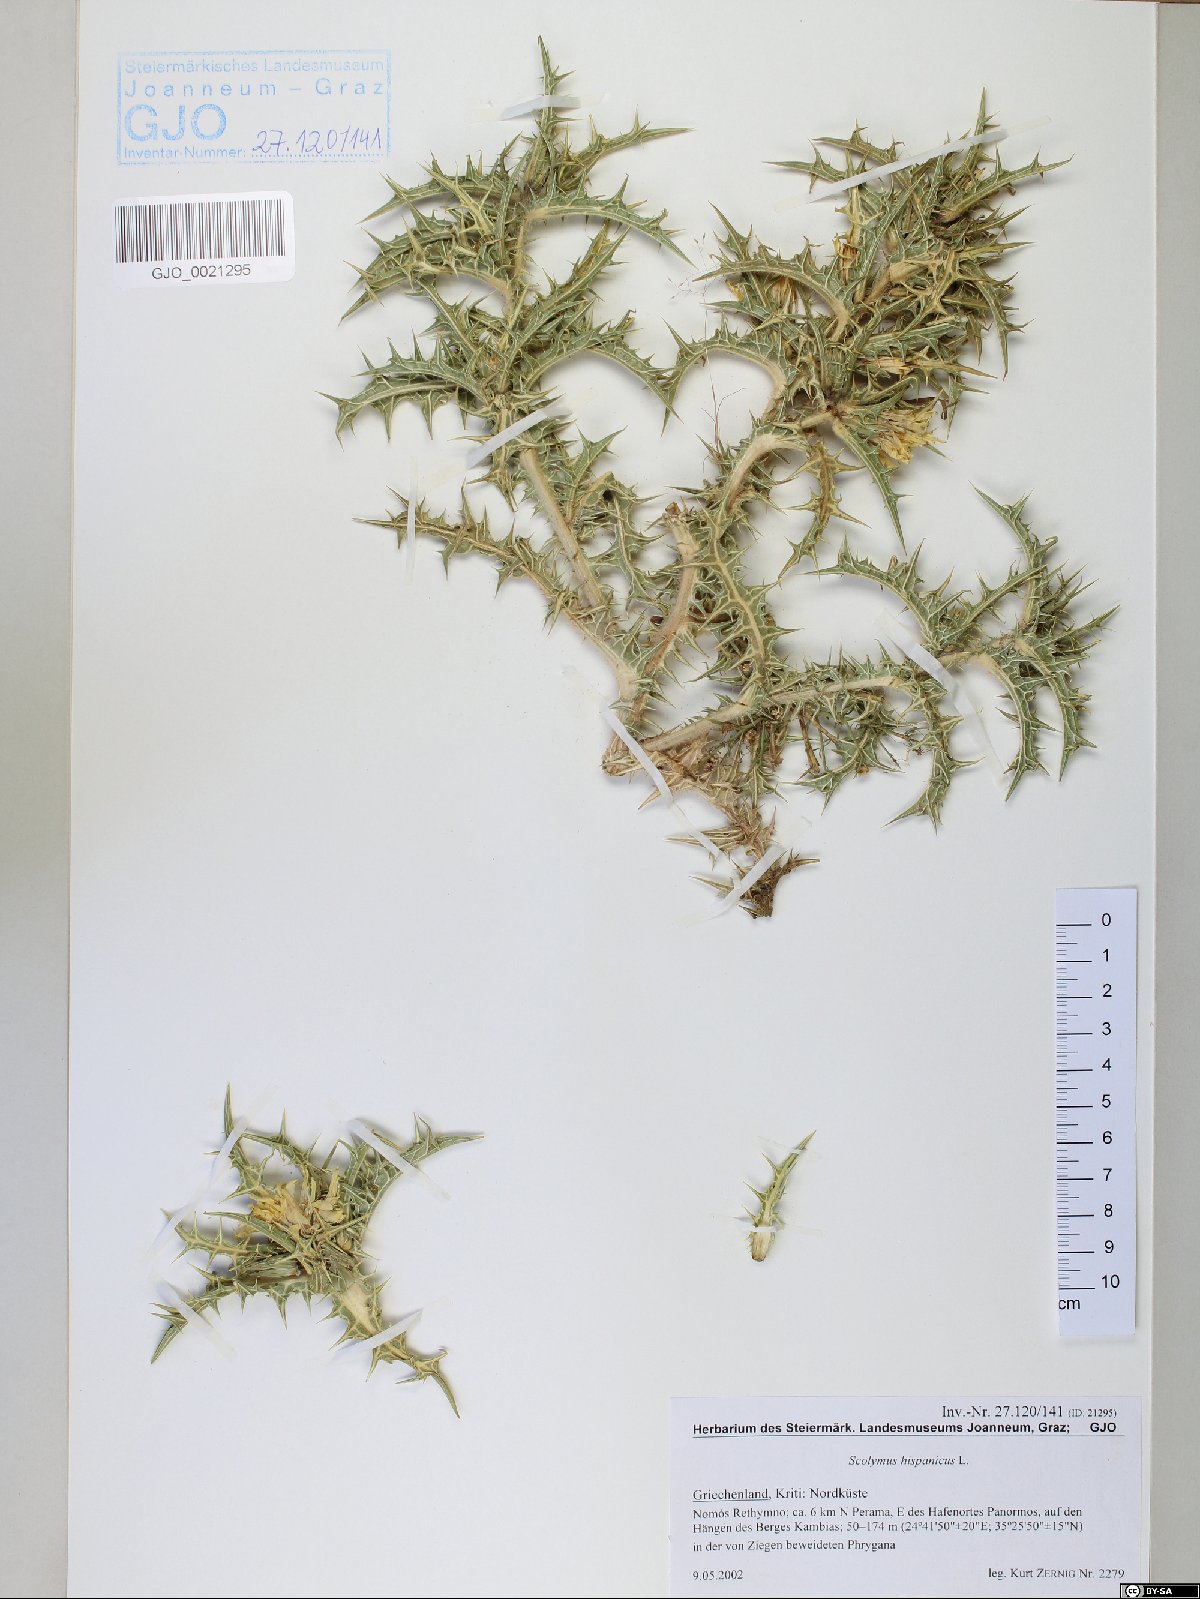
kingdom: Plantae
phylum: Tracheophyta
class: Magnoliopsida
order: Asterales
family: Asteraceae
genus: Scolymus
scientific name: Scolymus hispanicus
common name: Golden thistle
